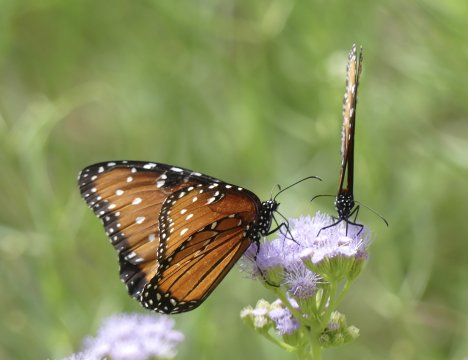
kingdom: Animalia
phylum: Arthropoda
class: Insecta
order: Lepidoptera
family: Nymphalidae
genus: Danaus
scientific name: Danaus gilippus
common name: Queen
